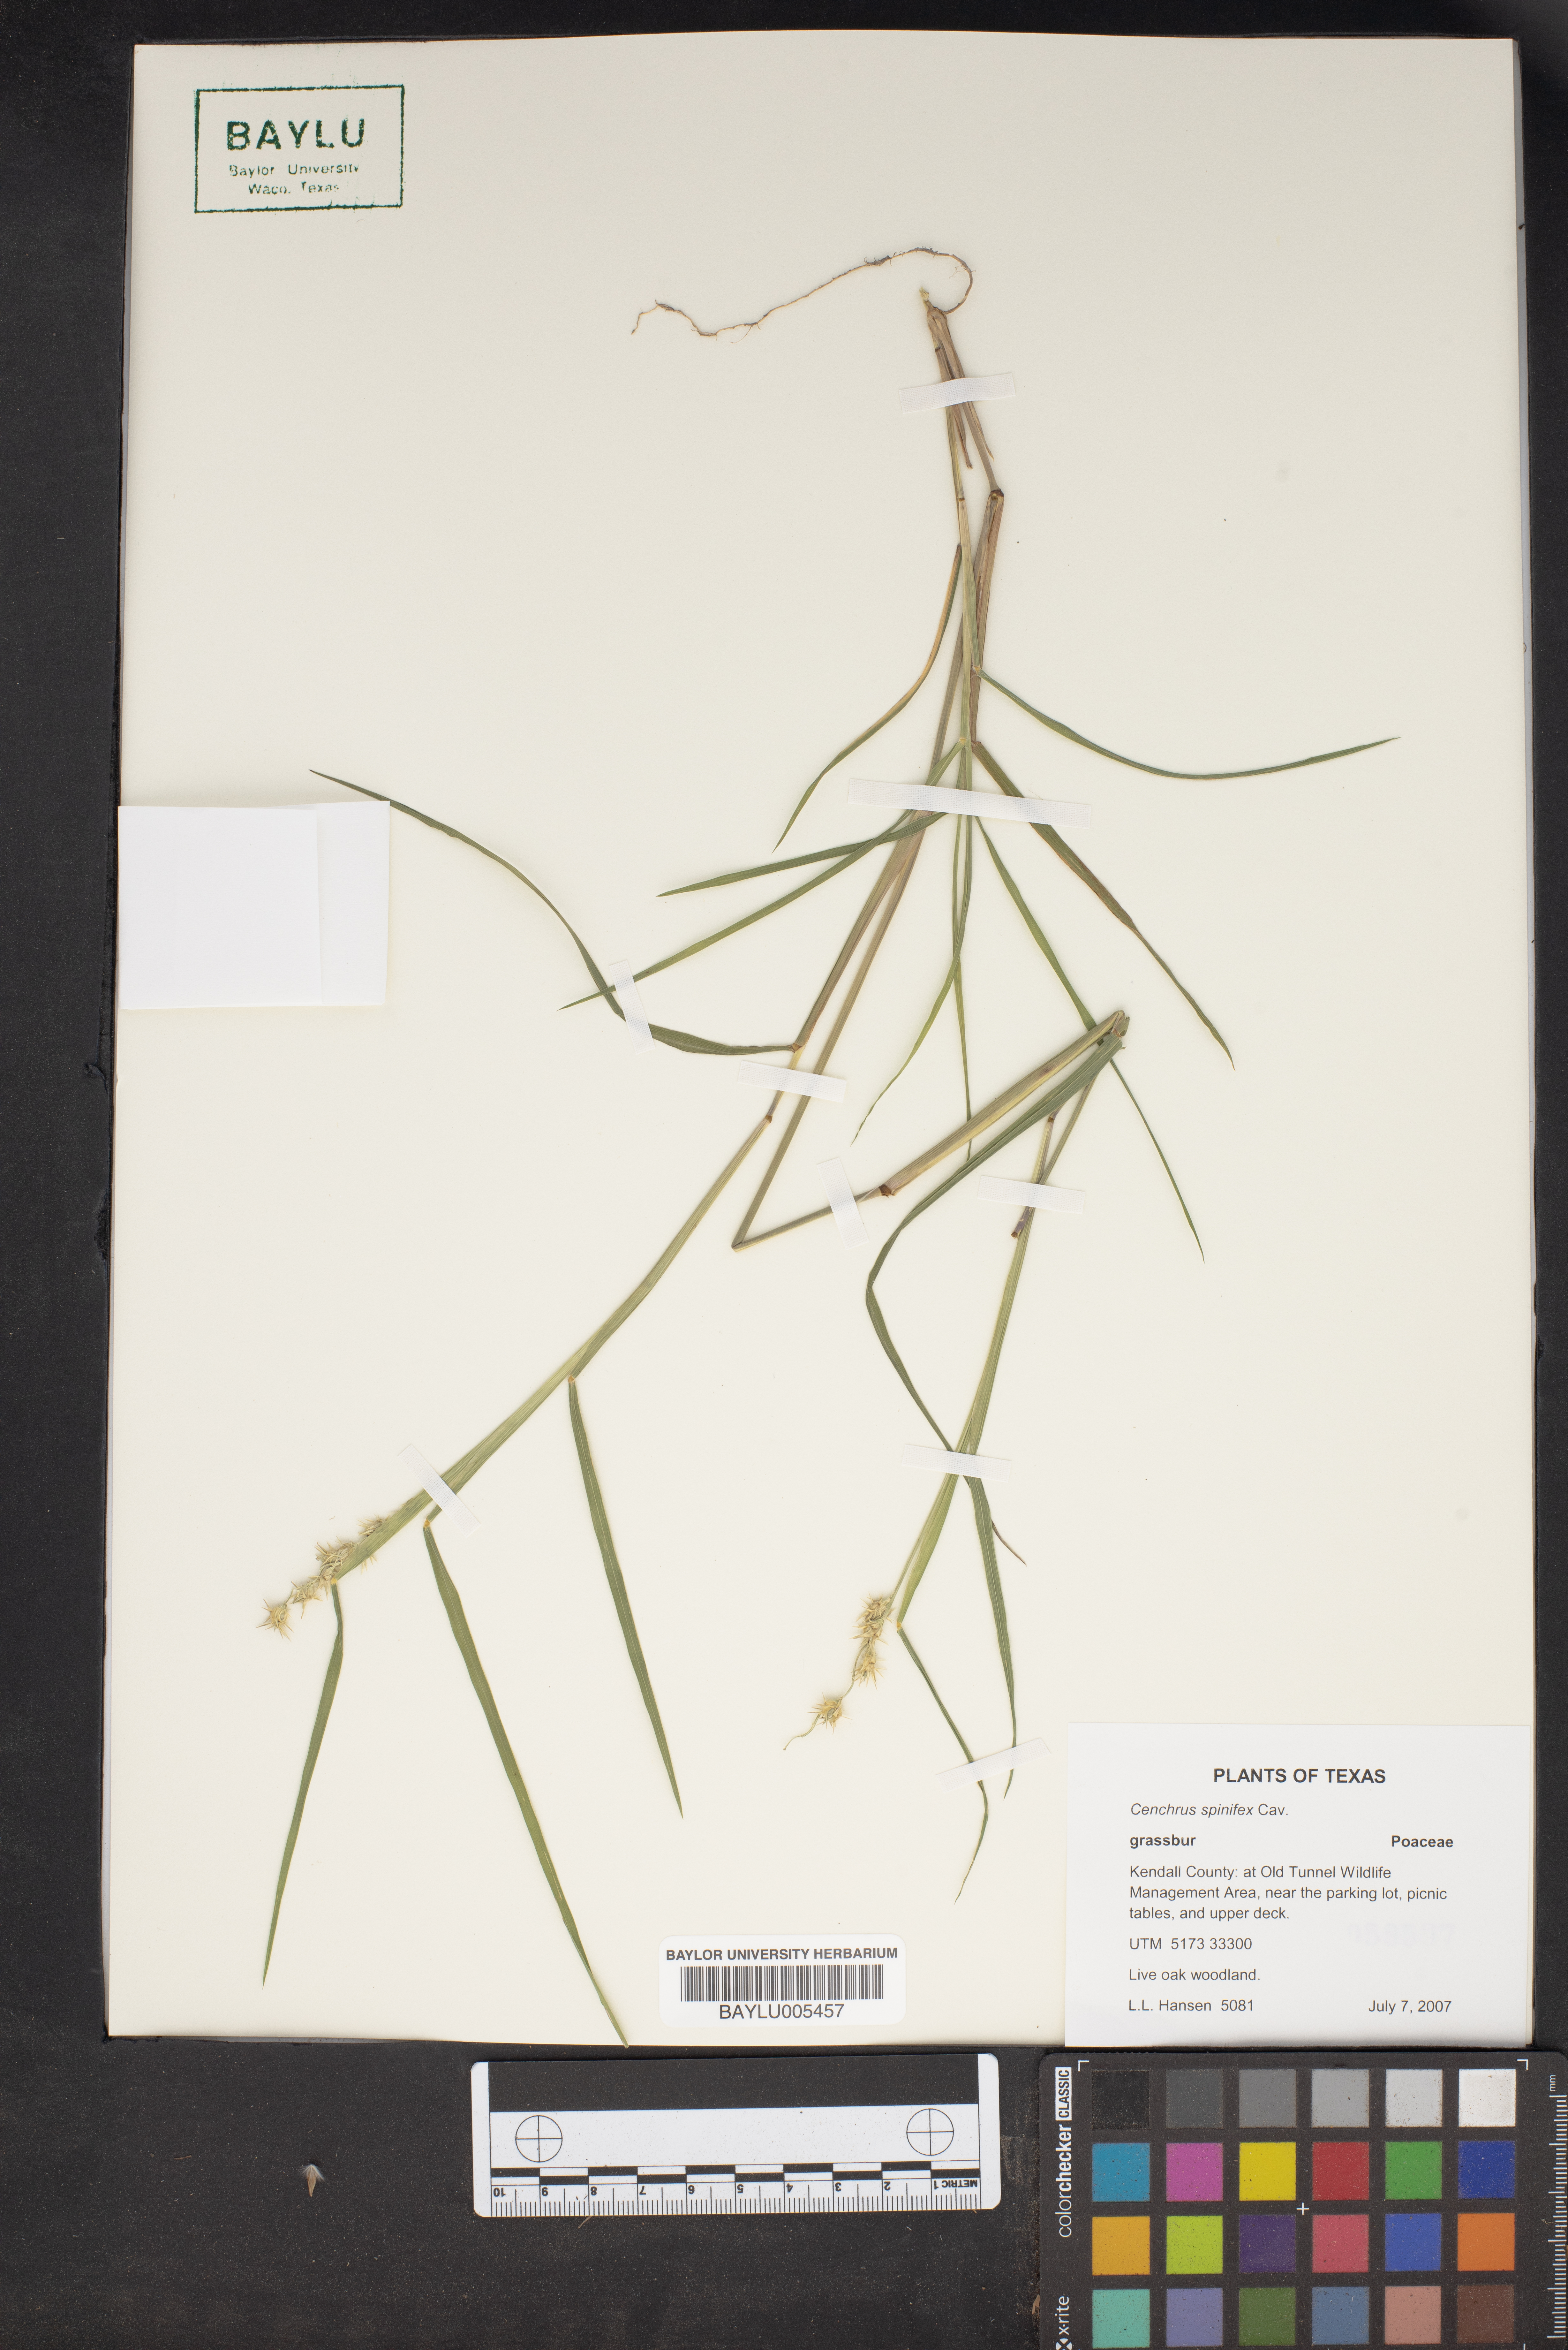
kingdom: Plantae
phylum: Tracheophyta
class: Liliopsida
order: Poales
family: Poaceae
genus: Cenchrus
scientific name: Cenchrus spinifex
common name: Coast sandbur
